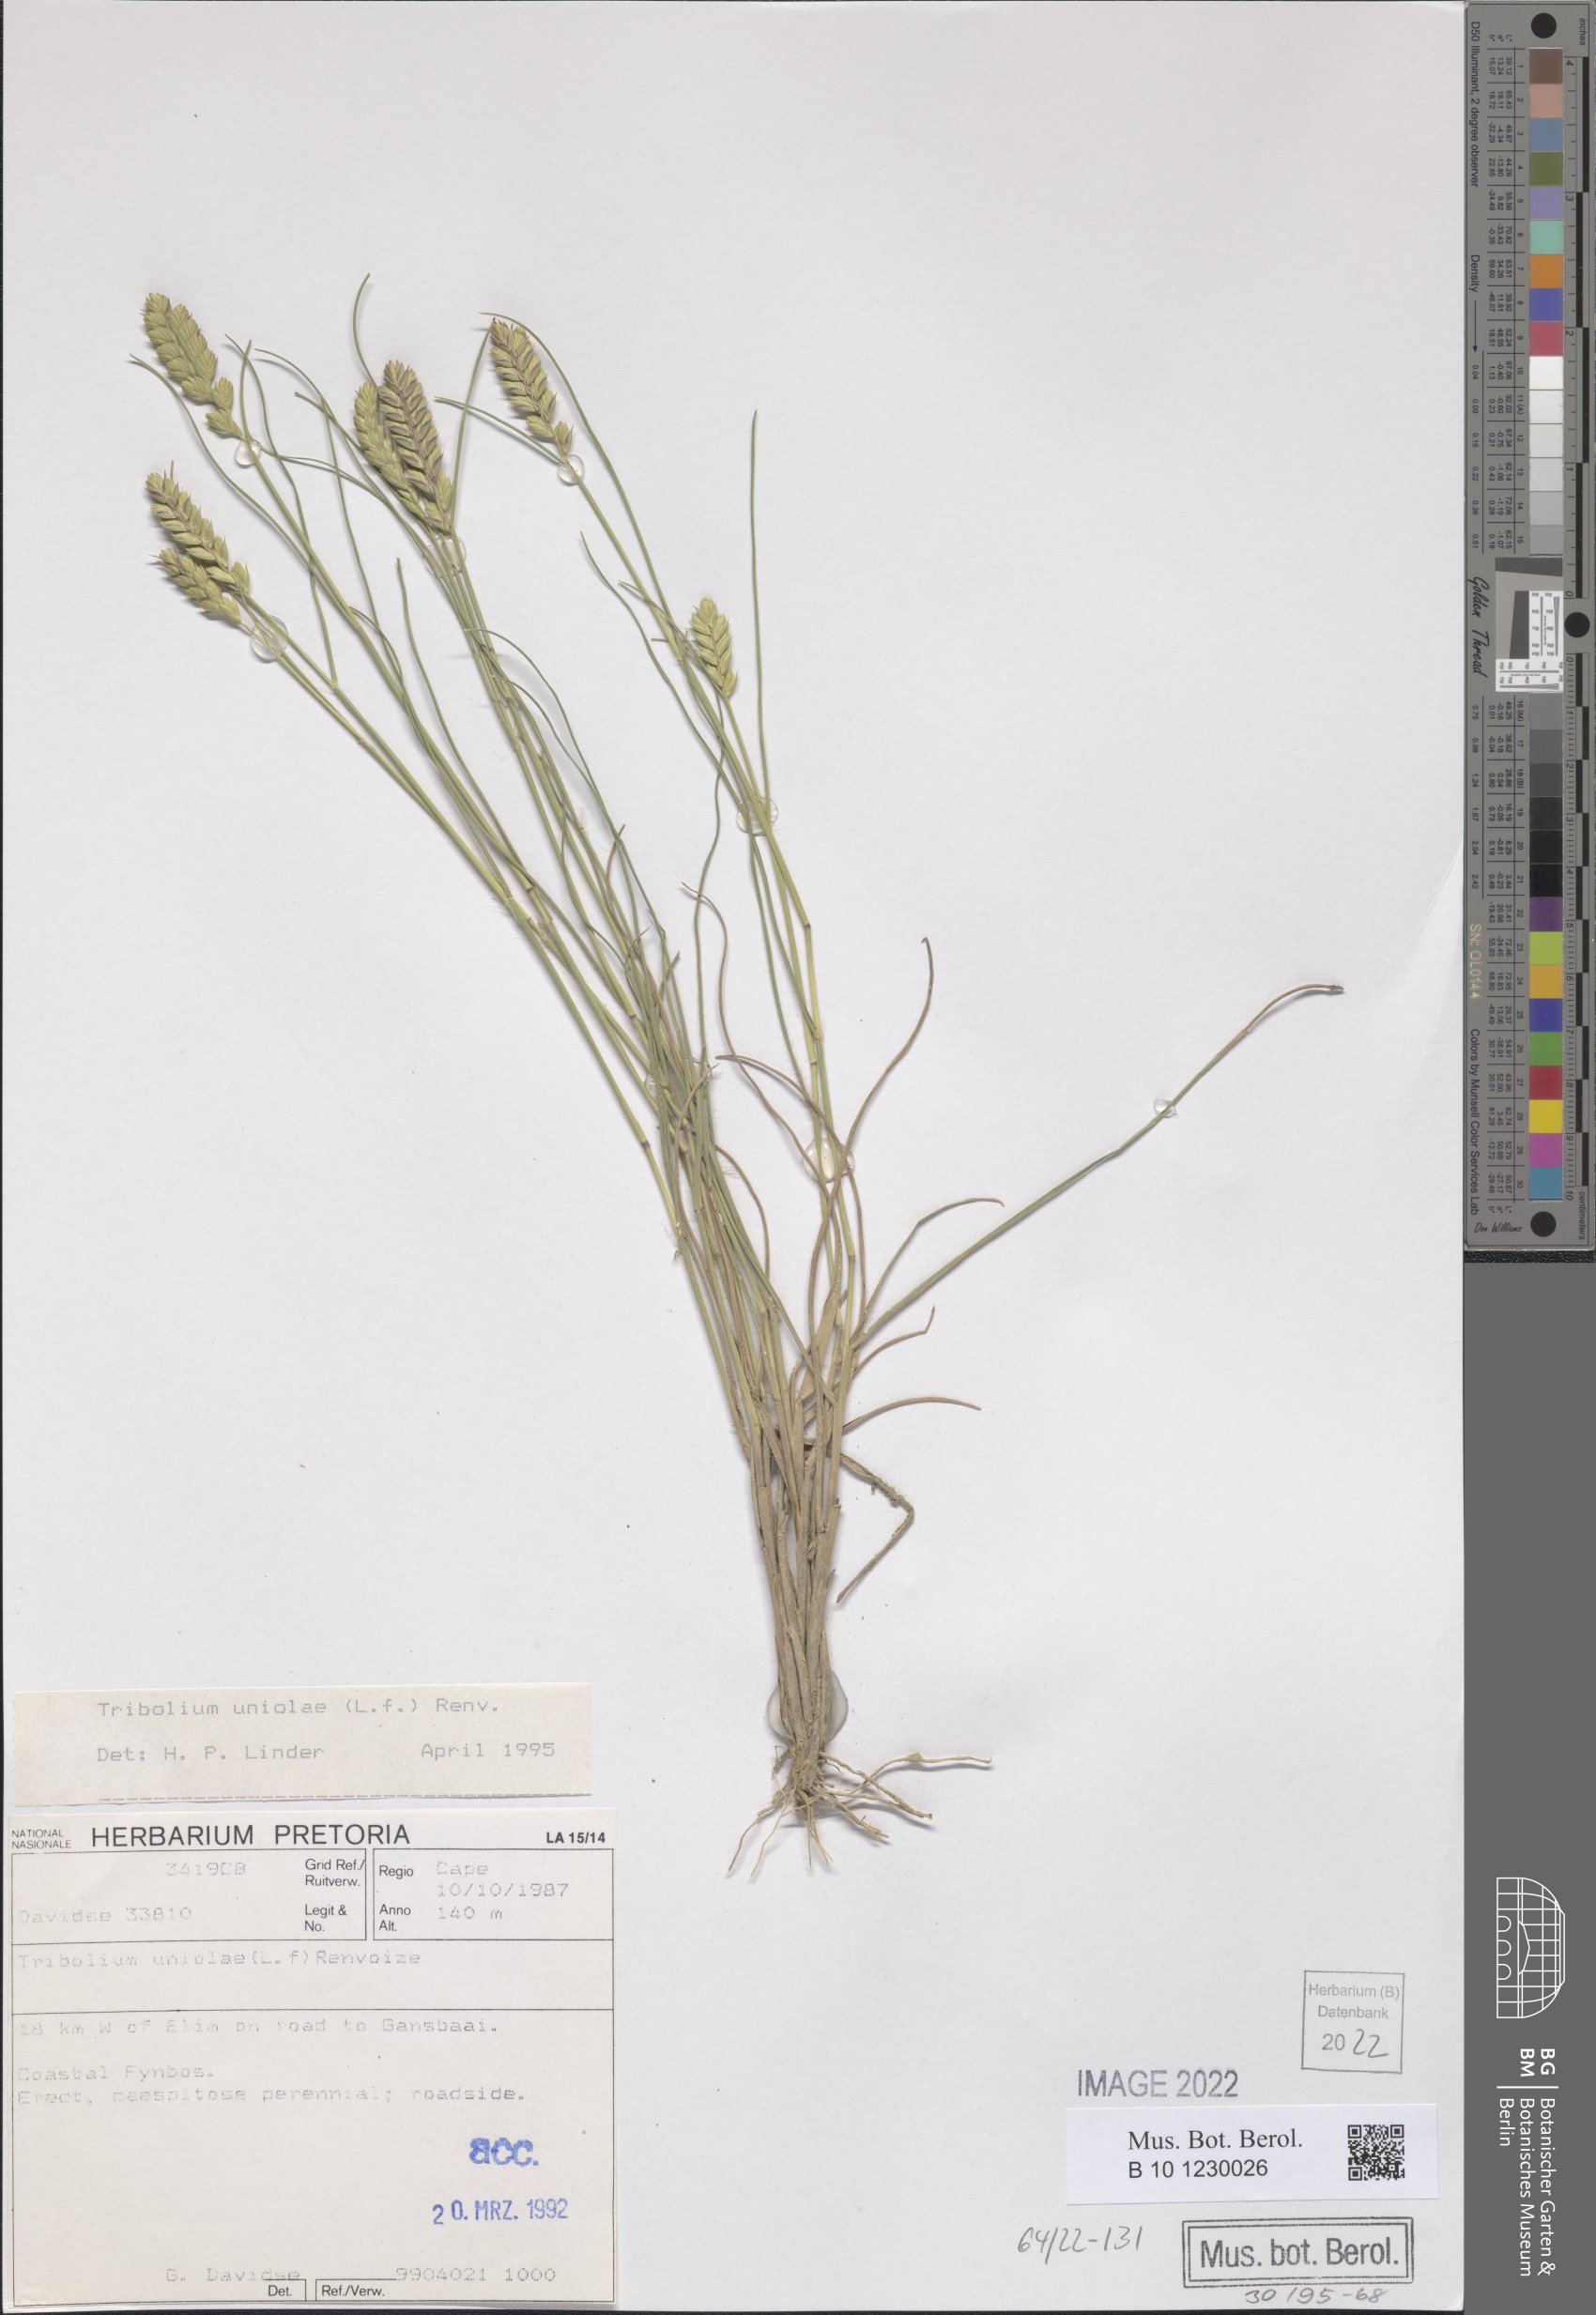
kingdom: Plantae
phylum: Tracheophyta
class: Liliopsida
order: Poales
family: Poaceae
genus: Tribolium
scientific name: Tribolium uniolae
